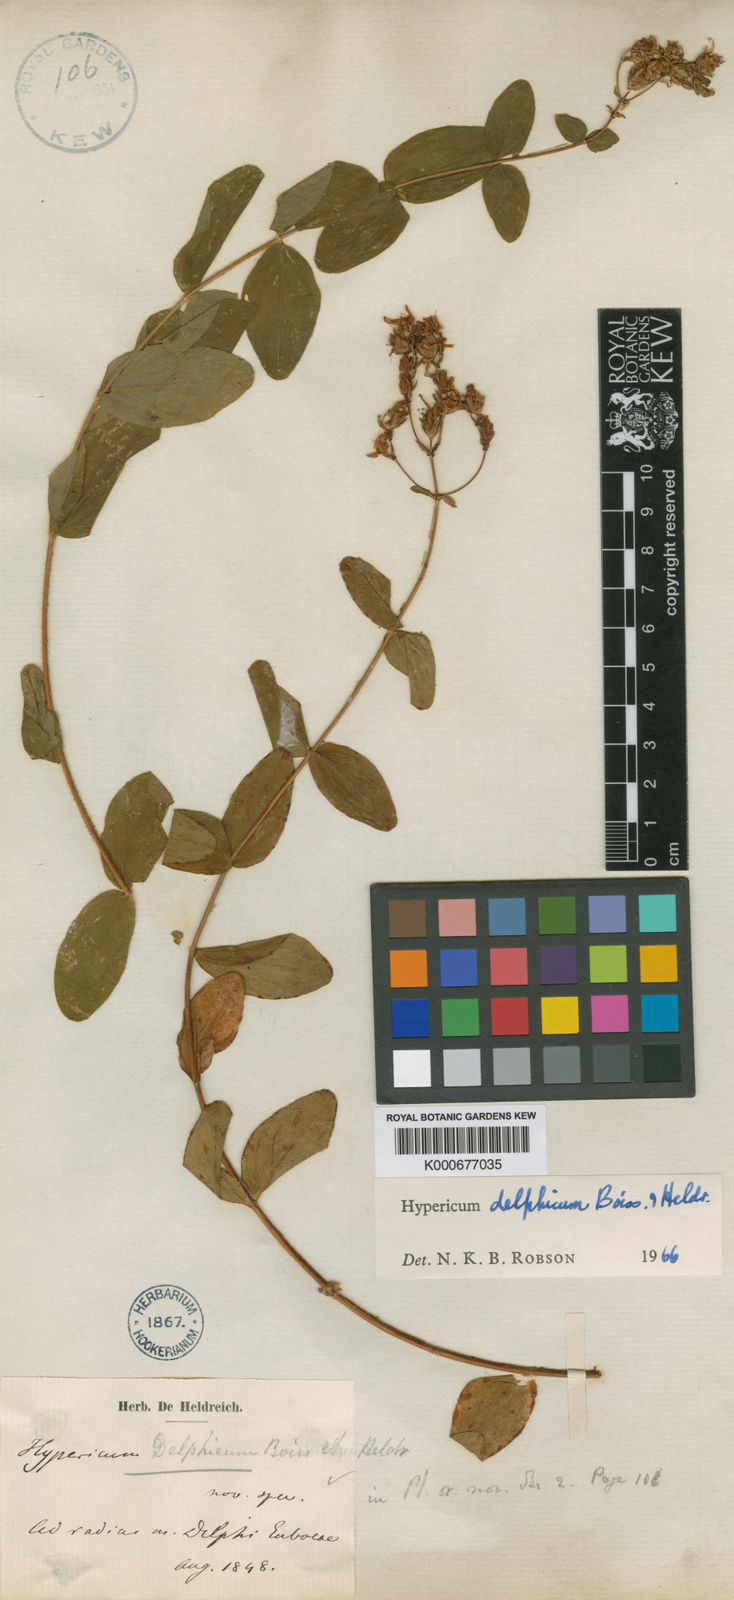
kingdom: Plantae
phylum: Tracheophyta
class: Magnoliopsida
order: Malpighiales
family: Hypericaceae
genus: Hypericum
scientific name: Hypericum delphicum
